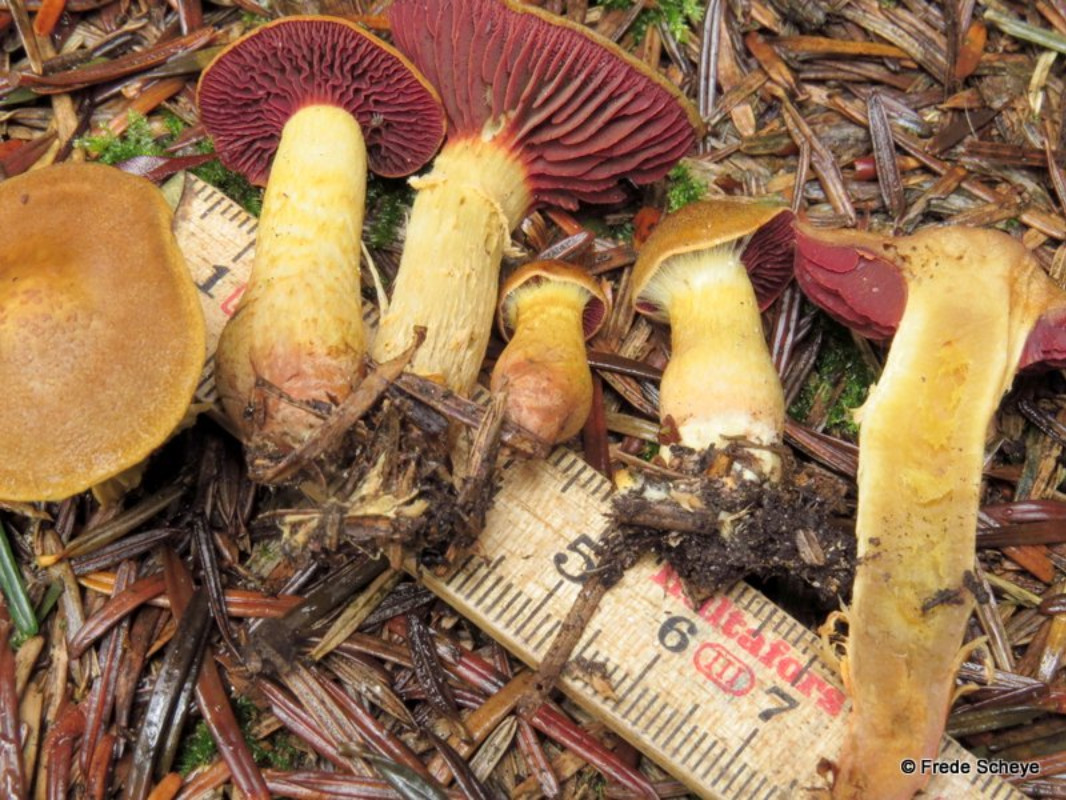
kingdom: Fungi
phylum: Basidiomycota
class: Agaricomycetes
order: Agaricales
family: Cortinariaceae
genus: Cortinarius
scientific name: Cortinarius
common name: cinnoberbladet slørhat
